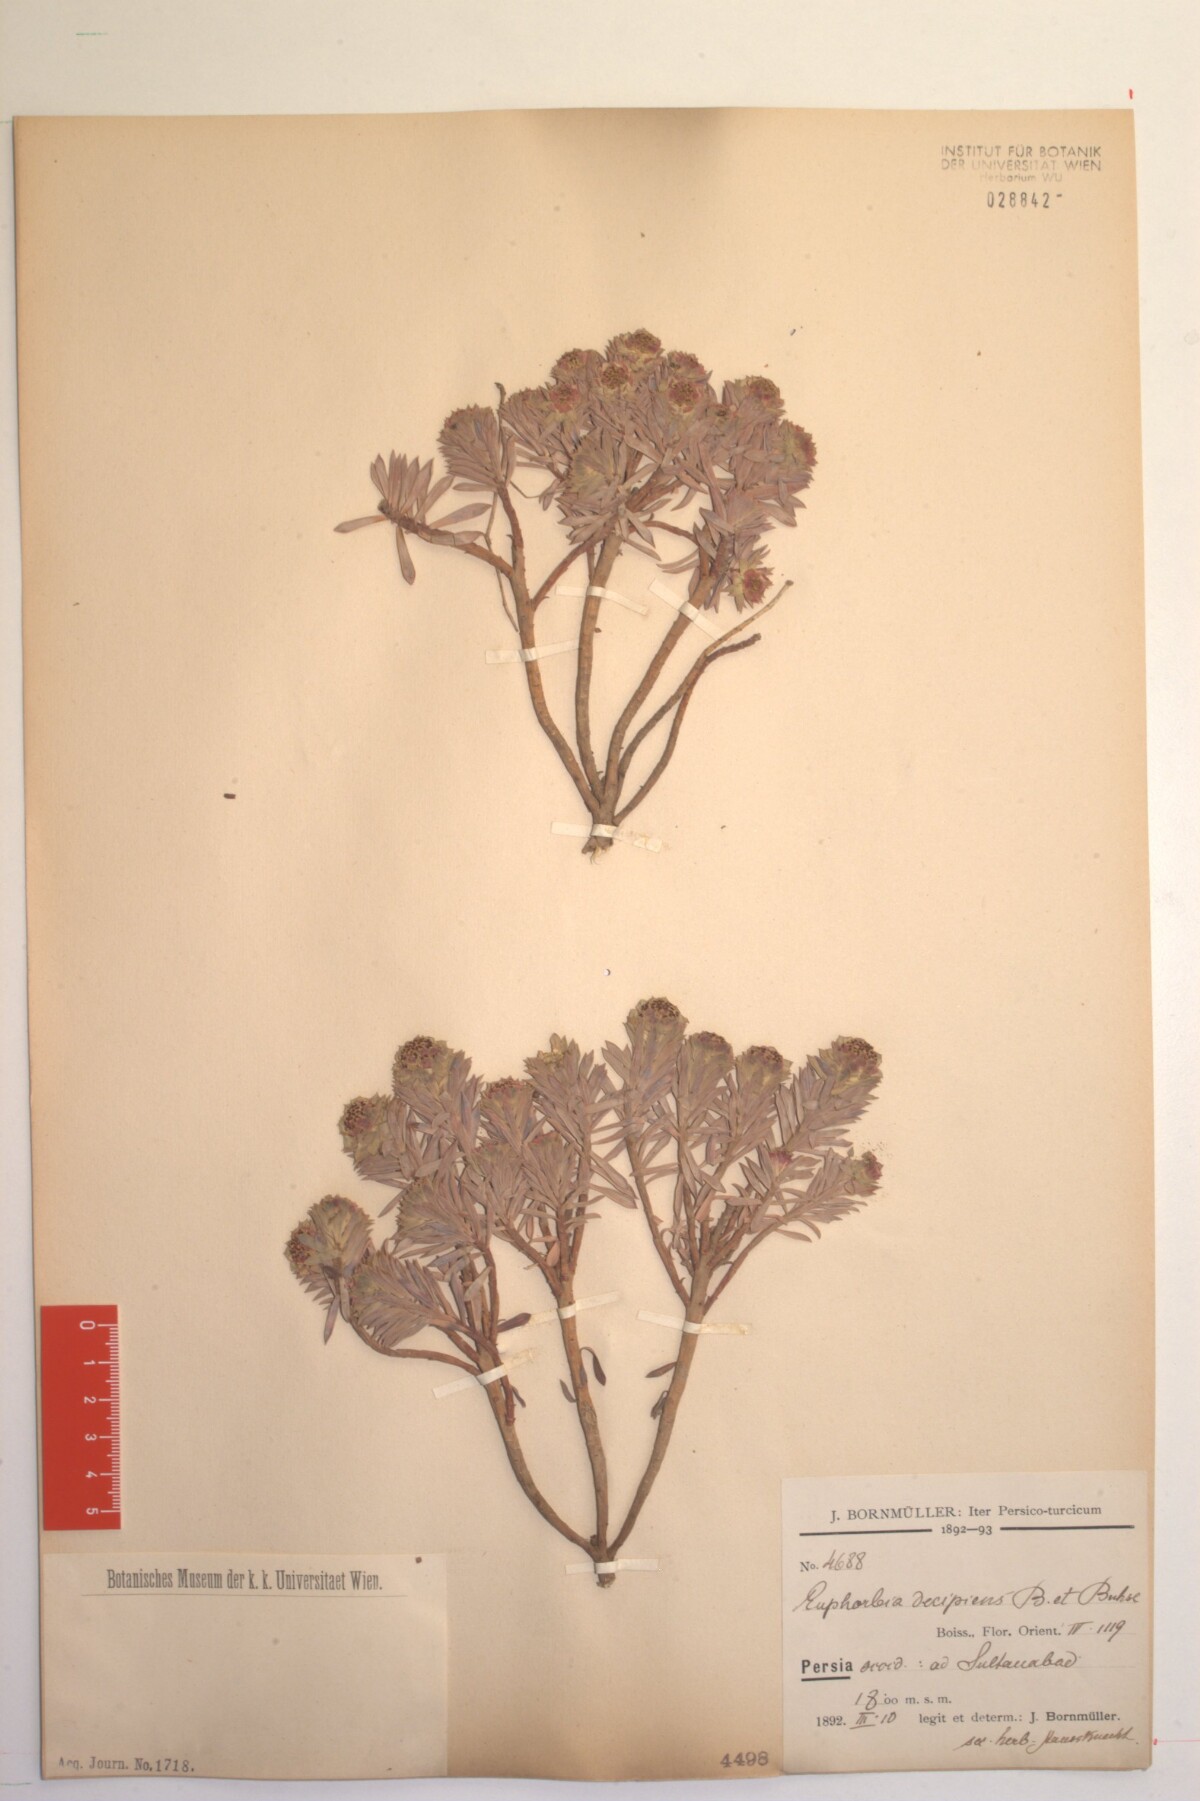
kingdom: Plantae
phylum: Tracheophyta
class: Magnoliopsida
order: Malpighiales
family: Euphorbiaceae
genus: Euphorbia
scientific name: Euphorbia polycaulis
